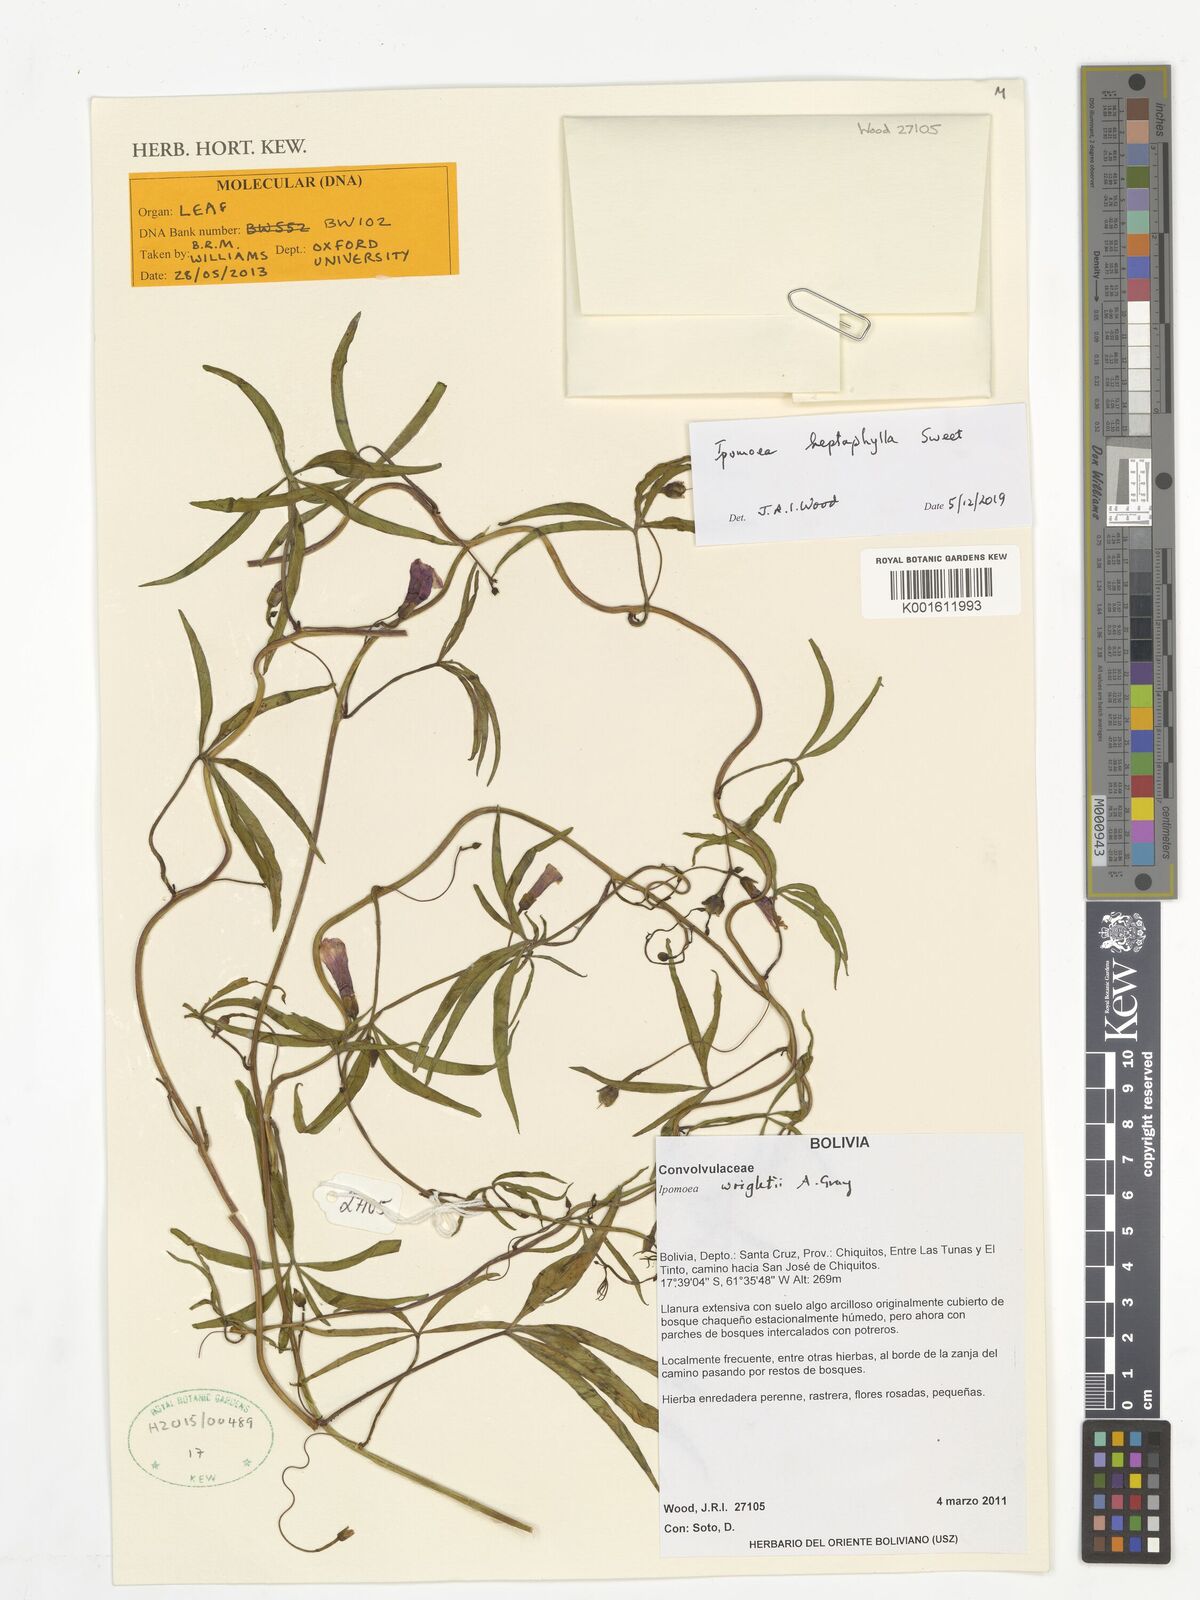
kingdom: Plantae
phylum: Tracheophyta
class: Magnoliopsida
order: Solanales
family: Convolvulaceae
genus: Ipomoea
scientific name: Ipomoea heptaphylla
